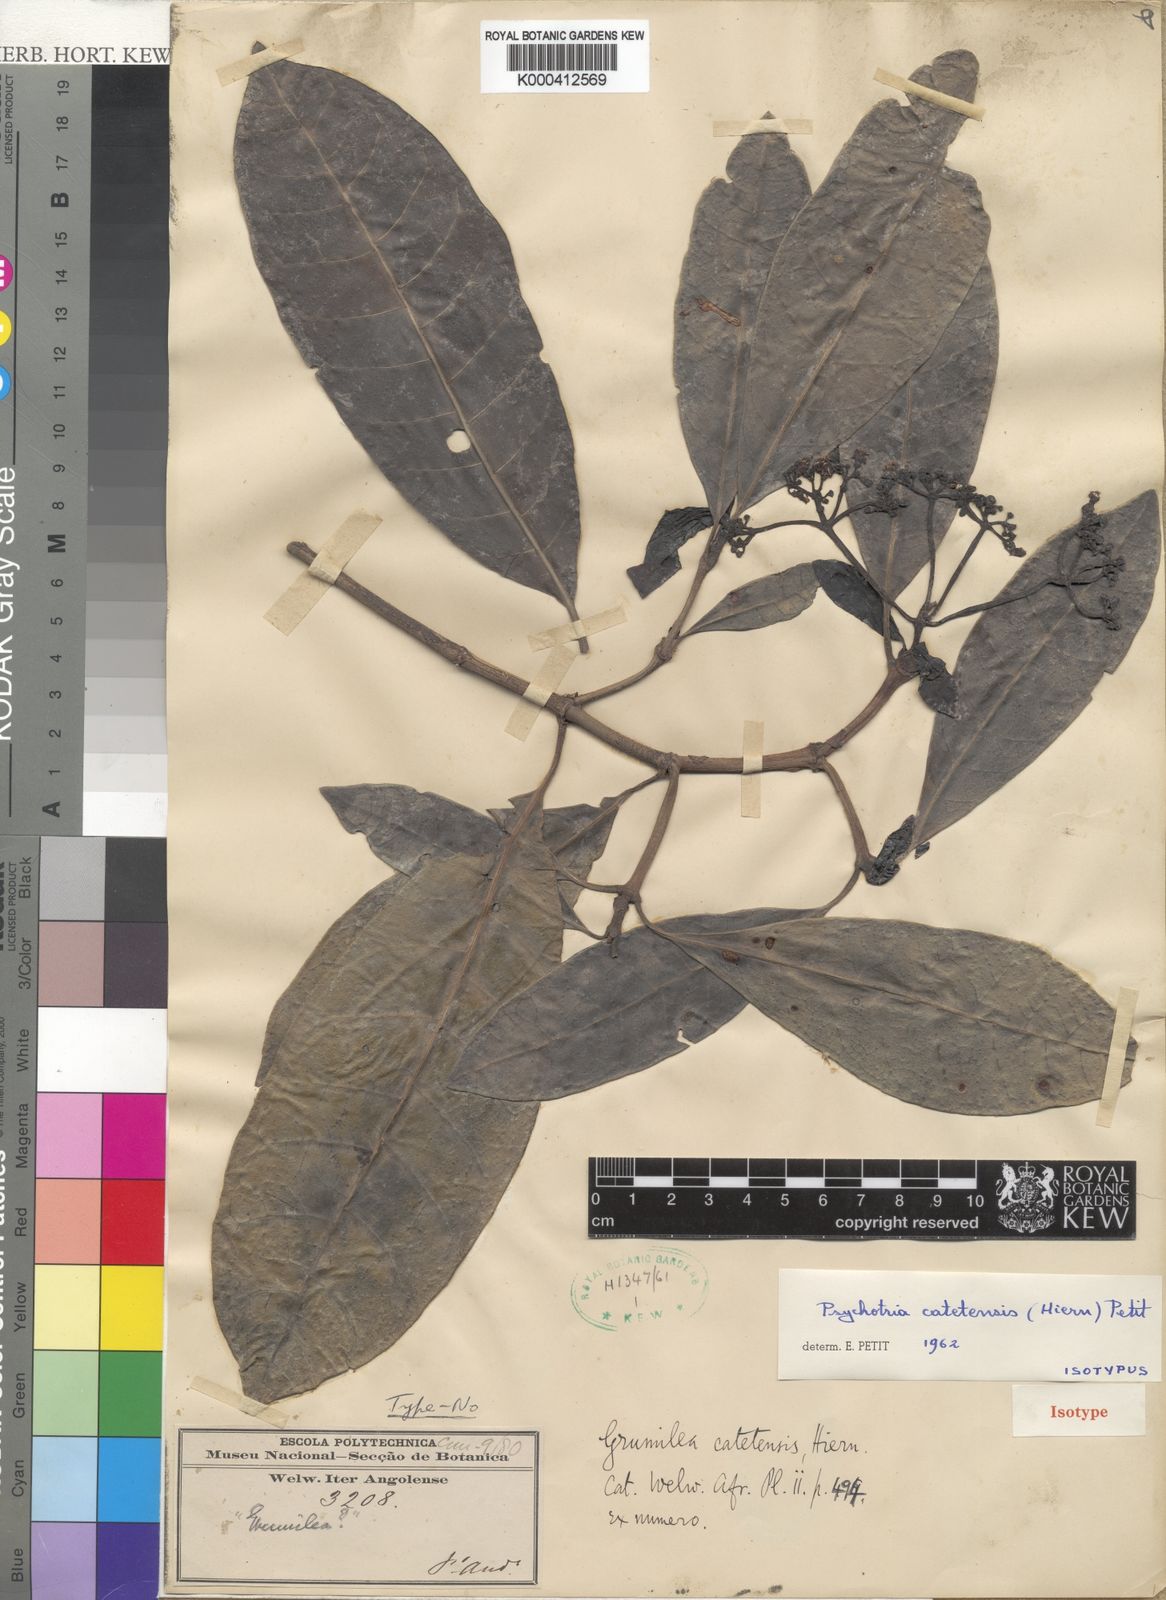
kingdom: Plantae
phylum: Tracheophyta
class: Magnoliopsida
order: Gentianales
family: Rubiaceae
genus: Psychotria
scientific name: Psychotria catetensis
